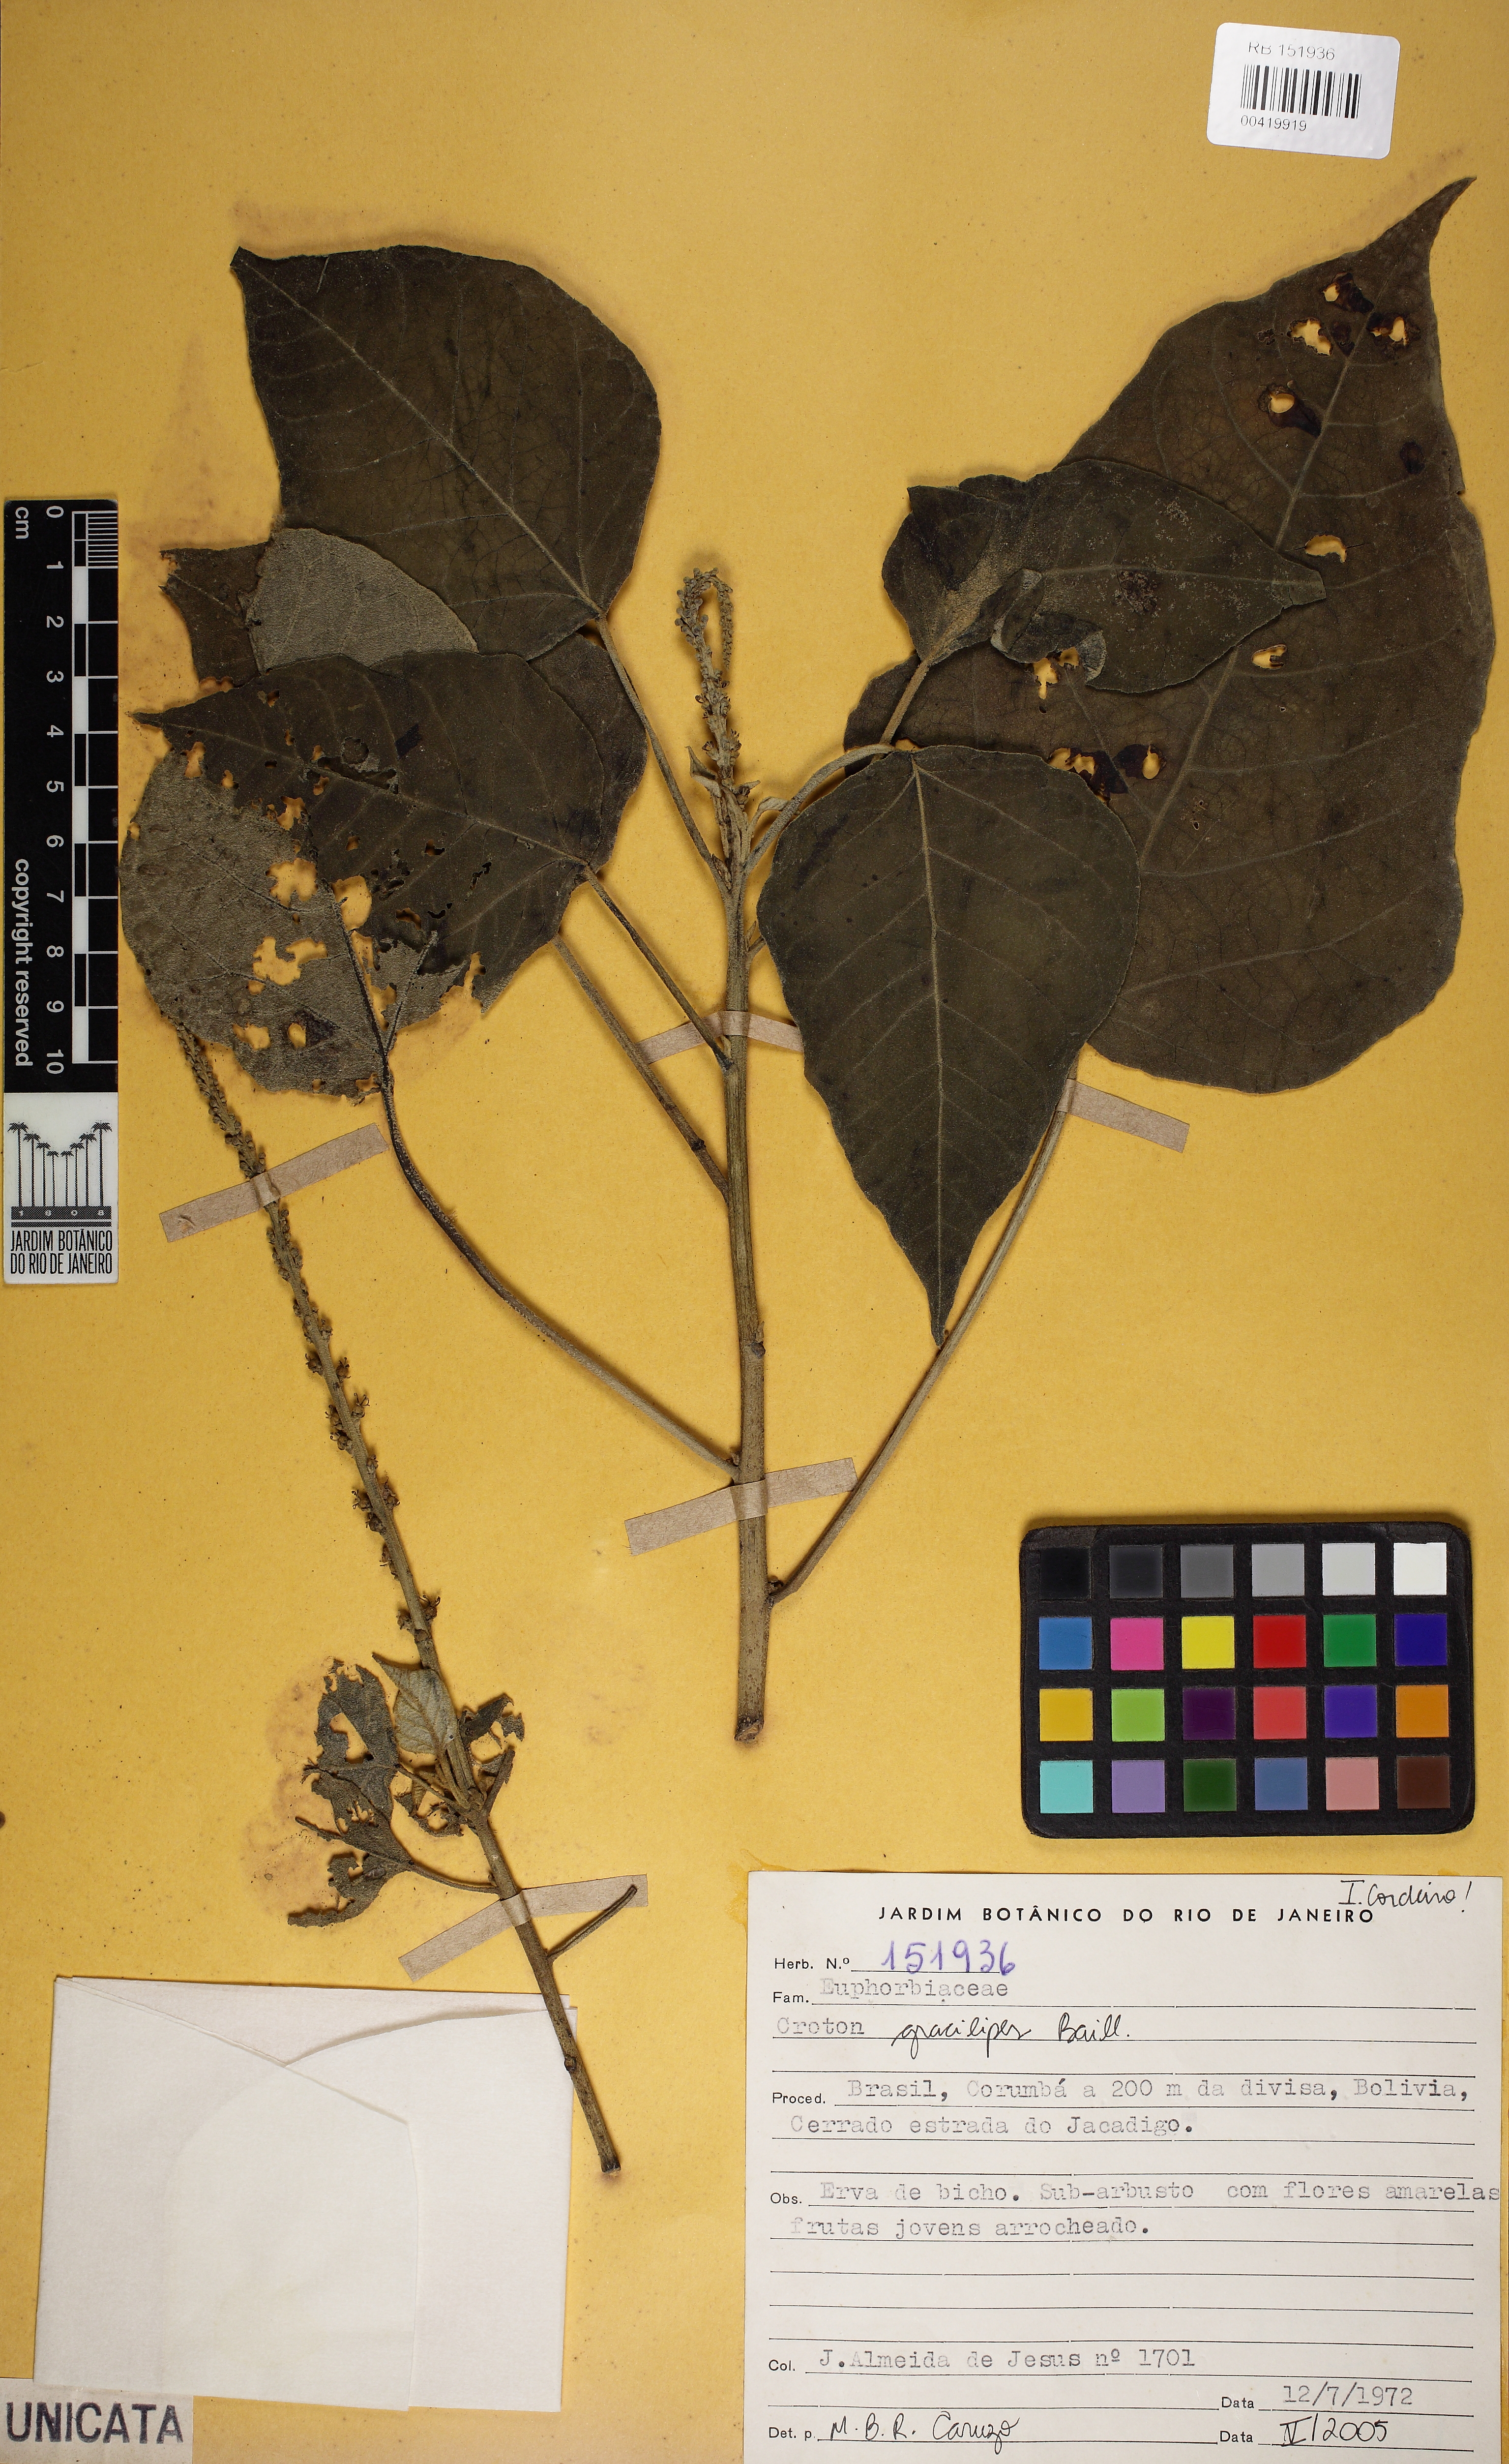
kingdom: Plantae
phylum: Tracheophyta
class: Magnoliopsida
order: Malpighiales
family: Euphorbiaceae
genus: Croton
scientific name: Croton gracilipes
